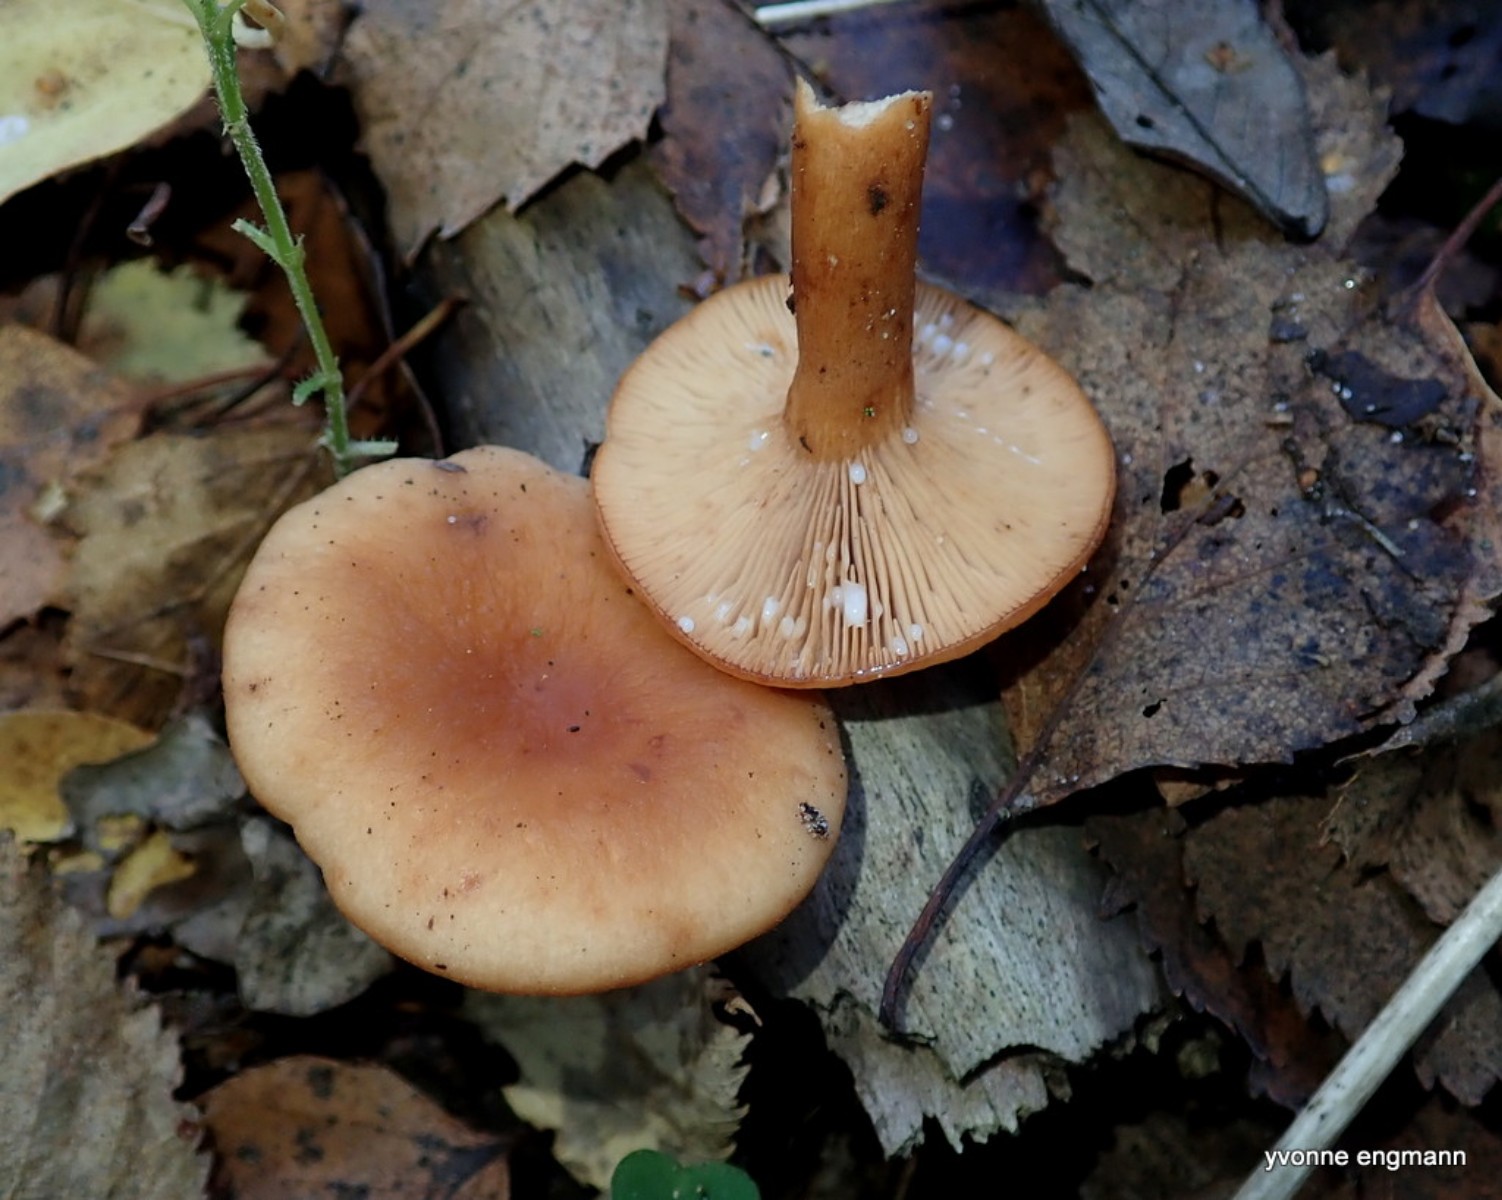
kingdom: Fungi
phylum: Basidiomycota
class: Agaricomycetes
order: Russulales
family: Russulaceae
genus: Lactarius
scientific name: Lactarius tabidus
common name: rynket mælkehat
